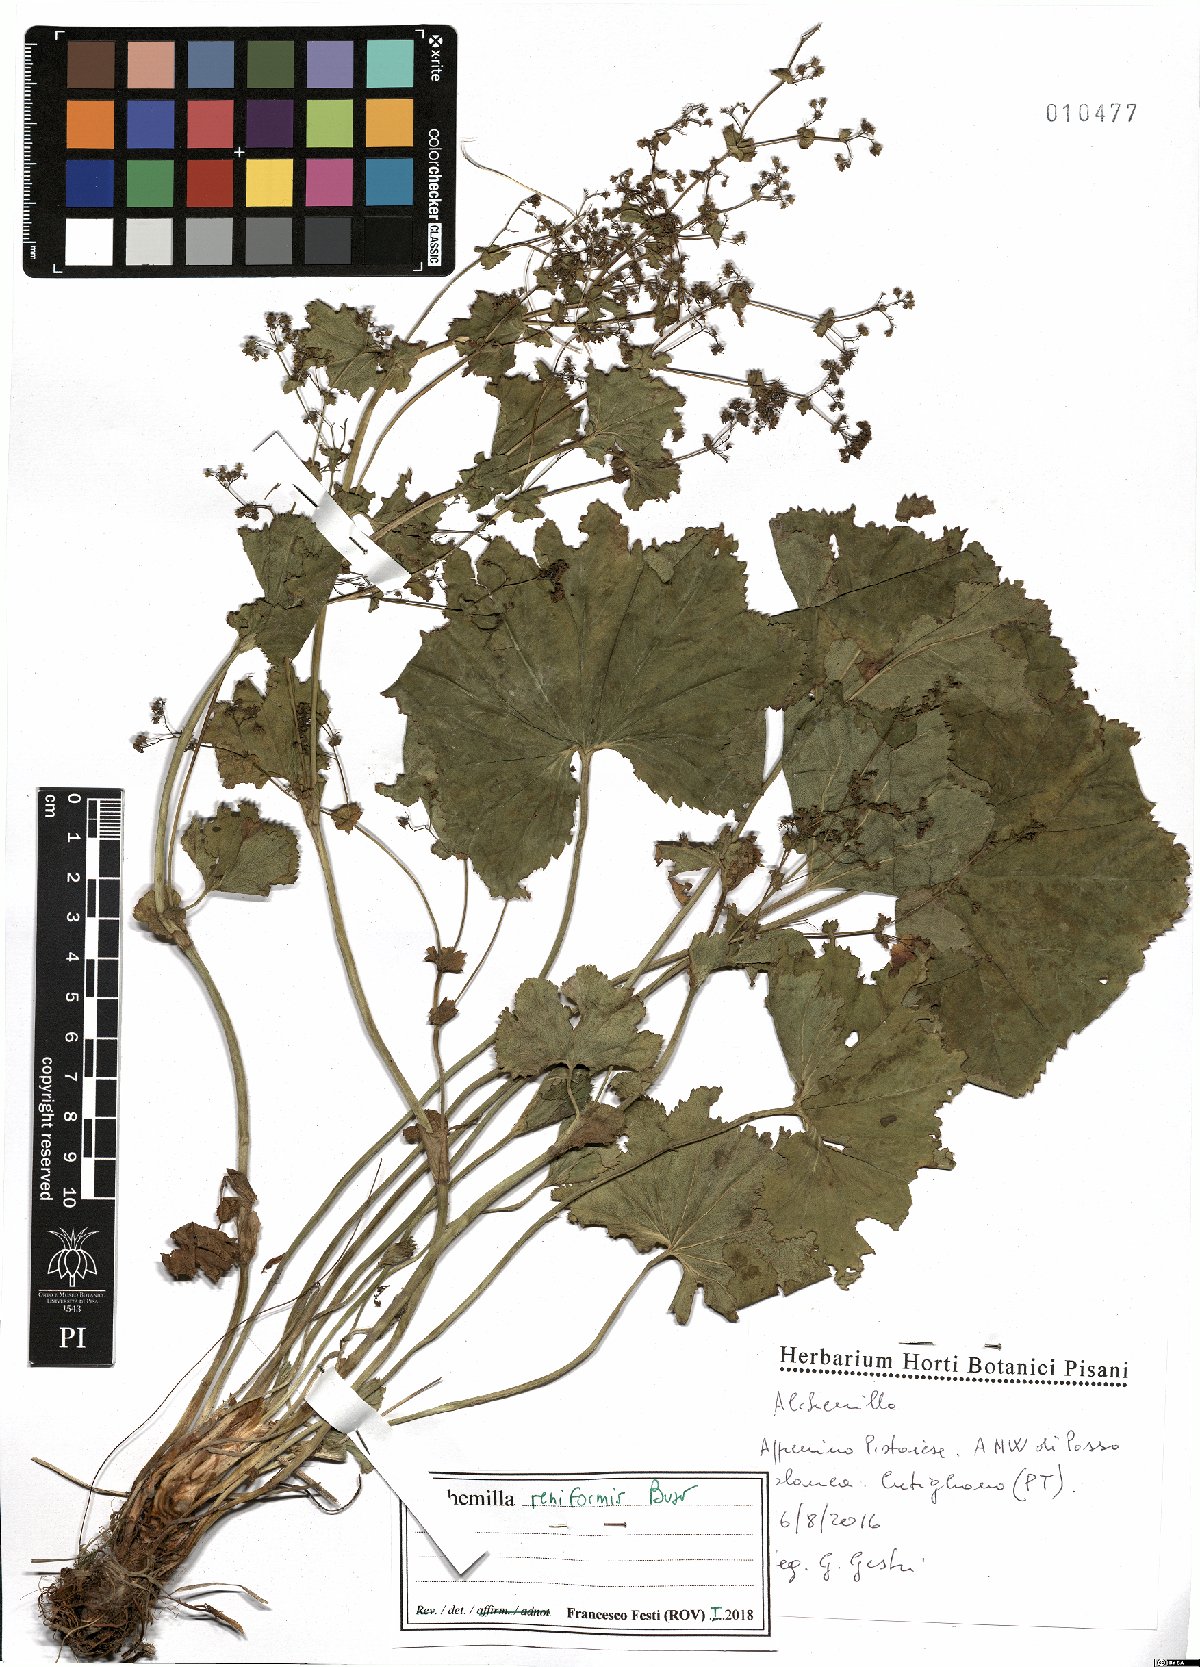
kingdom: Plantae
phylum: Tracheophyta
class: Magnoliopsida
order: Rosales
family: Rosaceae
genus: Alchemilla
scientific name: Alchemilla reniformis
